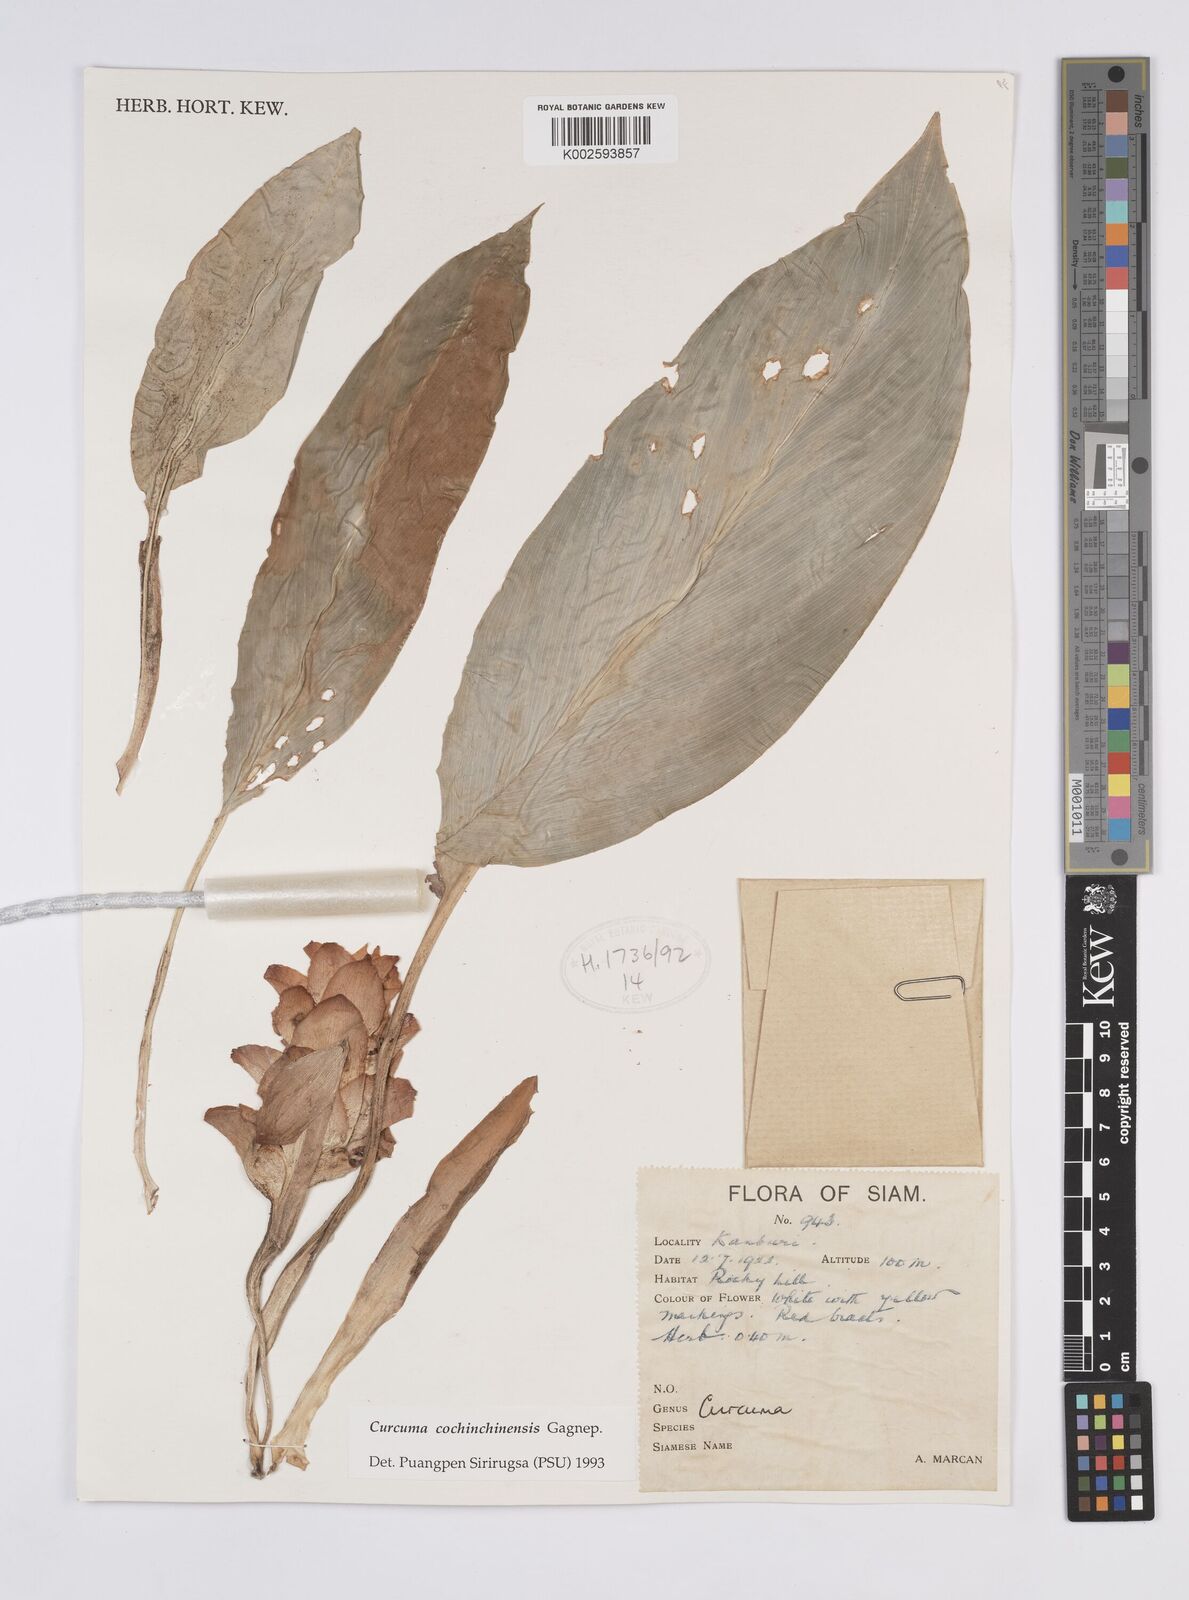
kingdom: Plantae
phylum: Tracheophyta
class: Liliopsida
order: Zingiberales
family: Zingiberaceae
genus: Curcuma
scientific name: Curcuma cochinchinensis
